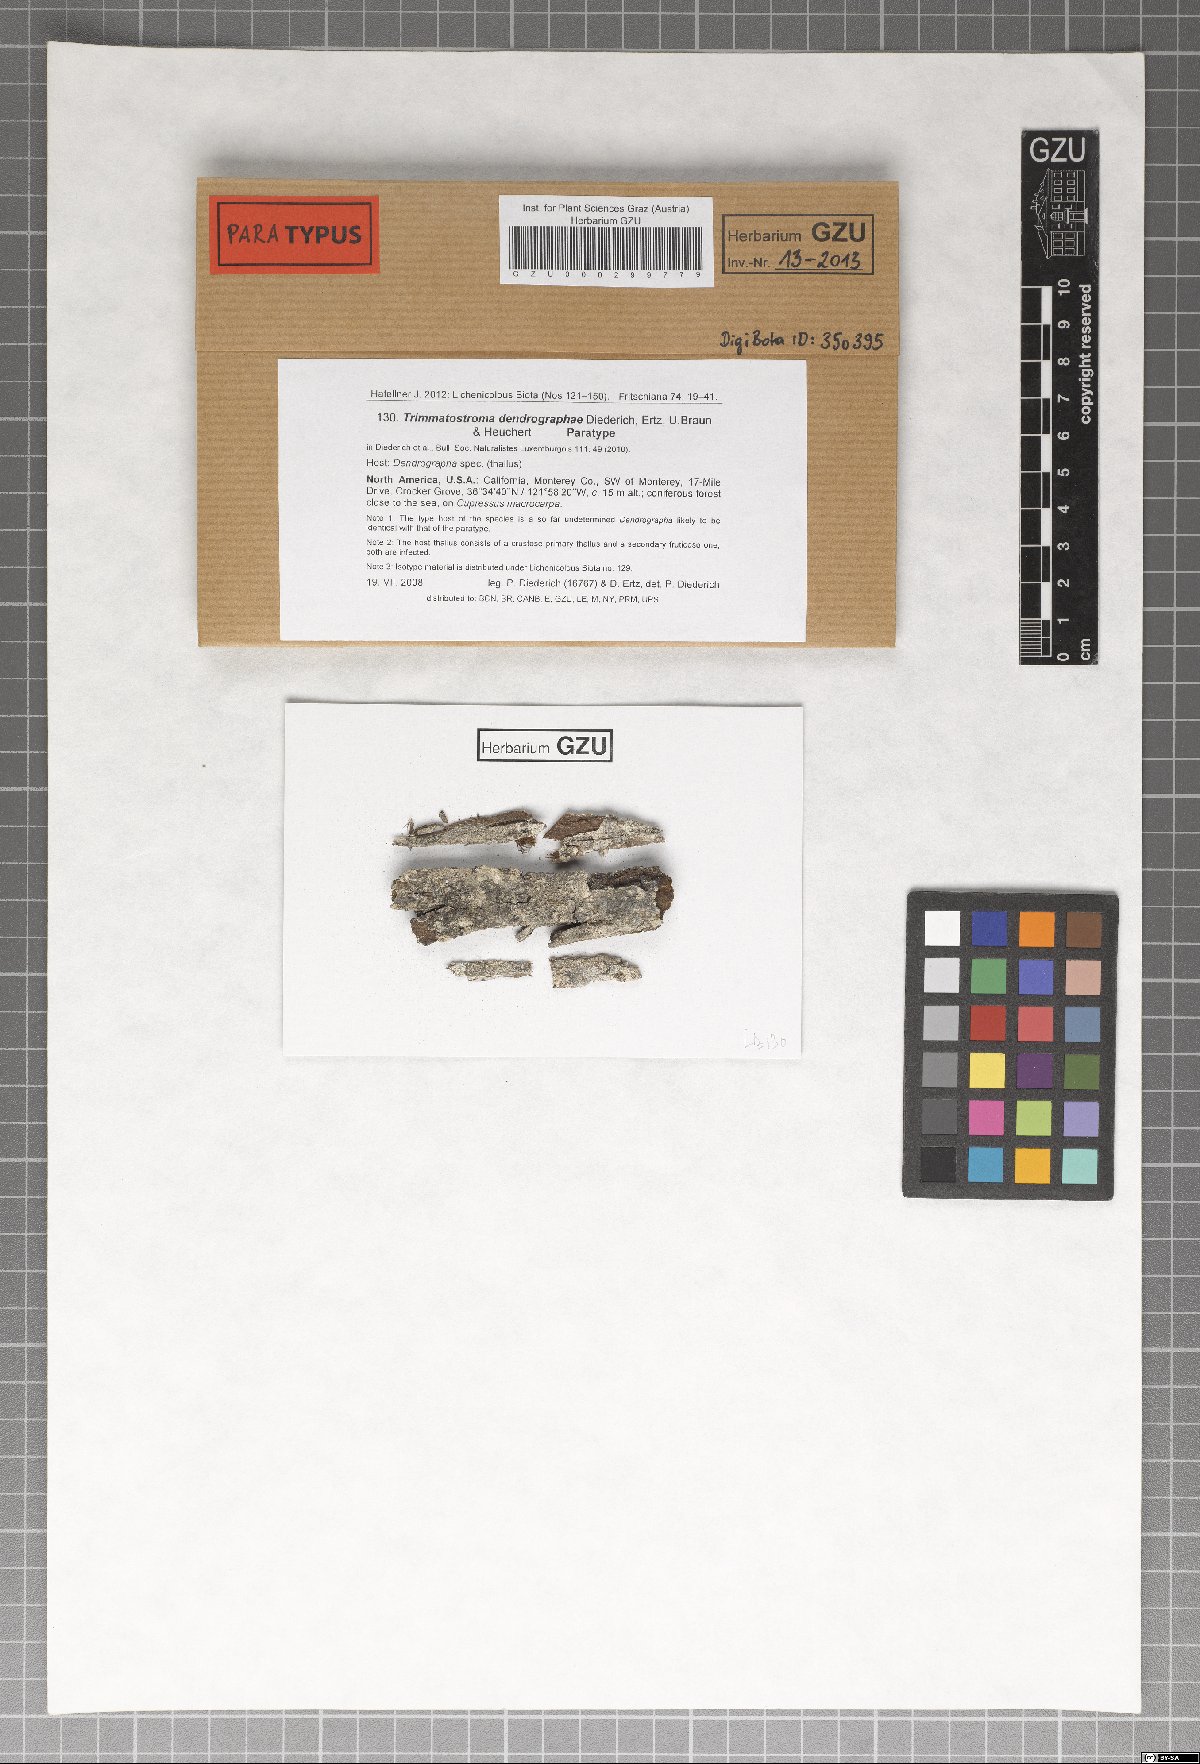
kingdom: Fungi
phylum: Ascomycota
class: Leotiomycetes
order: Helotiales
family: Mollisiaceae
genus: Trimmatostroma
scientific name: Trimmatostroma dendrographae
